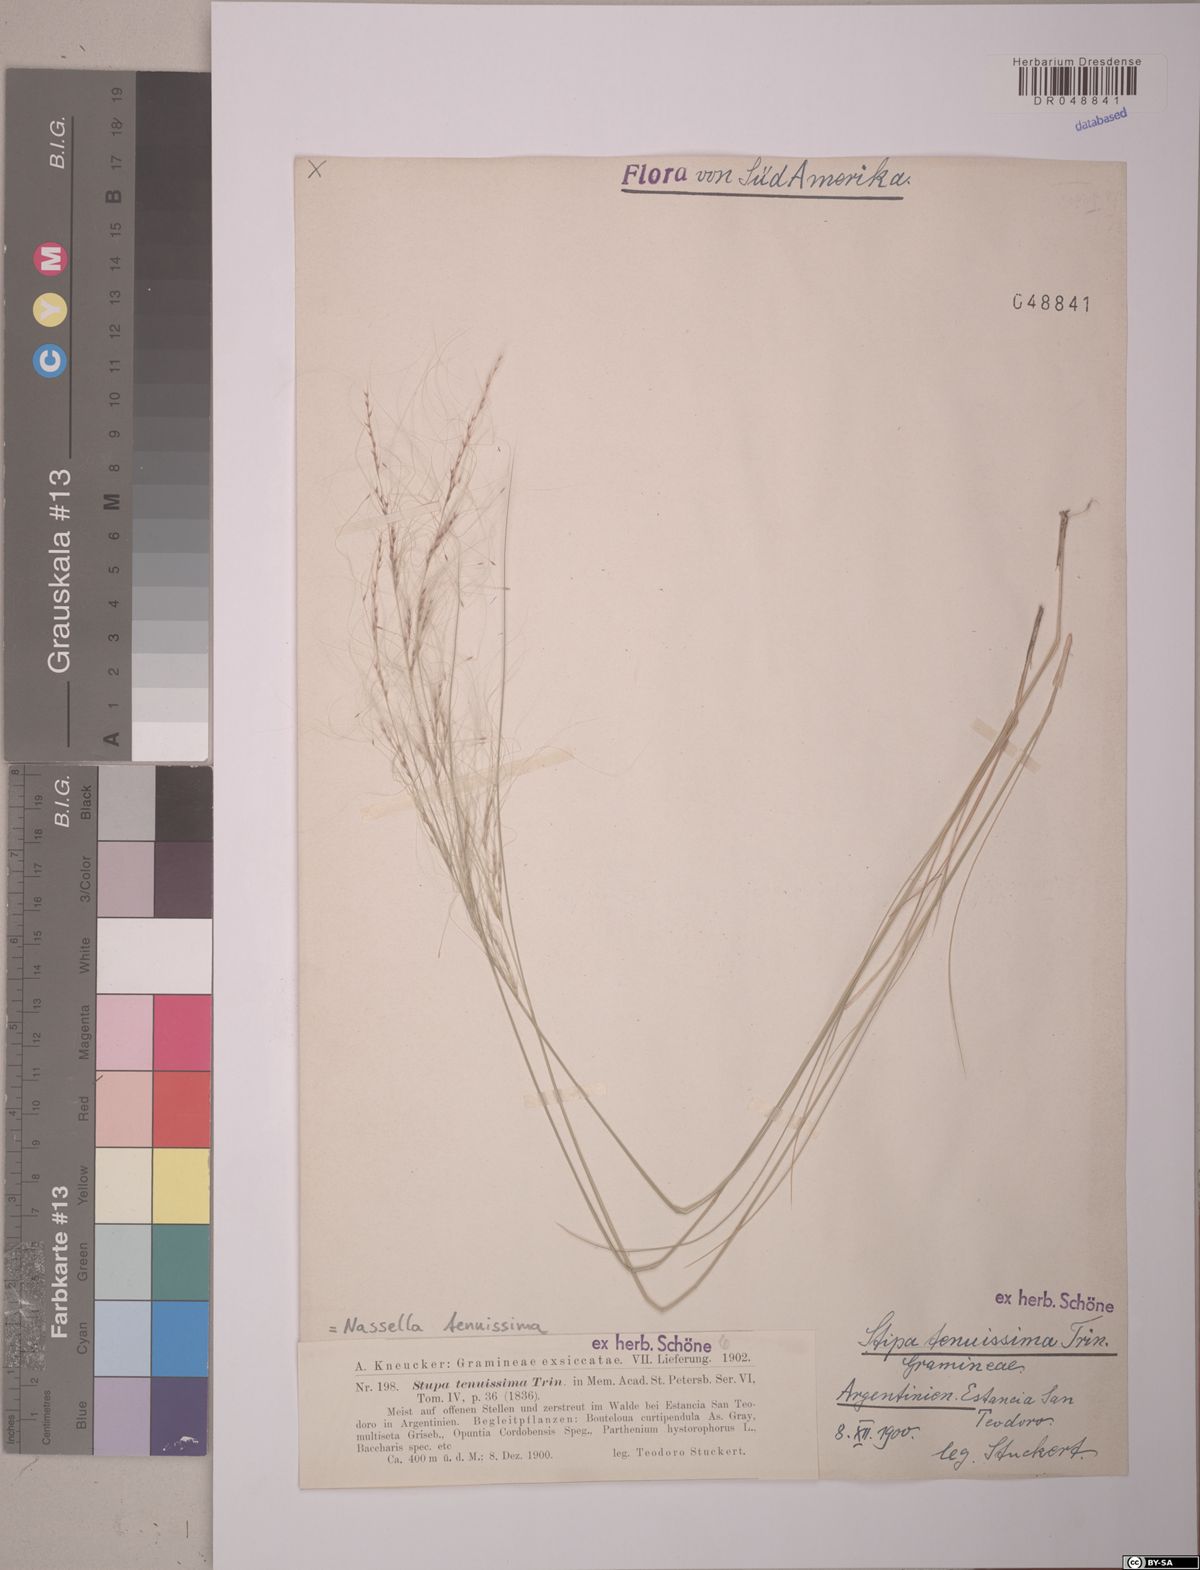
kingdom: Plantae
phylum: Tracheophyta
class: Liliopsida
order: Poales
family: Poaceae
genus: Nassella
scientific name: Nassella tenuissima
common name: Argentine needlegrass
